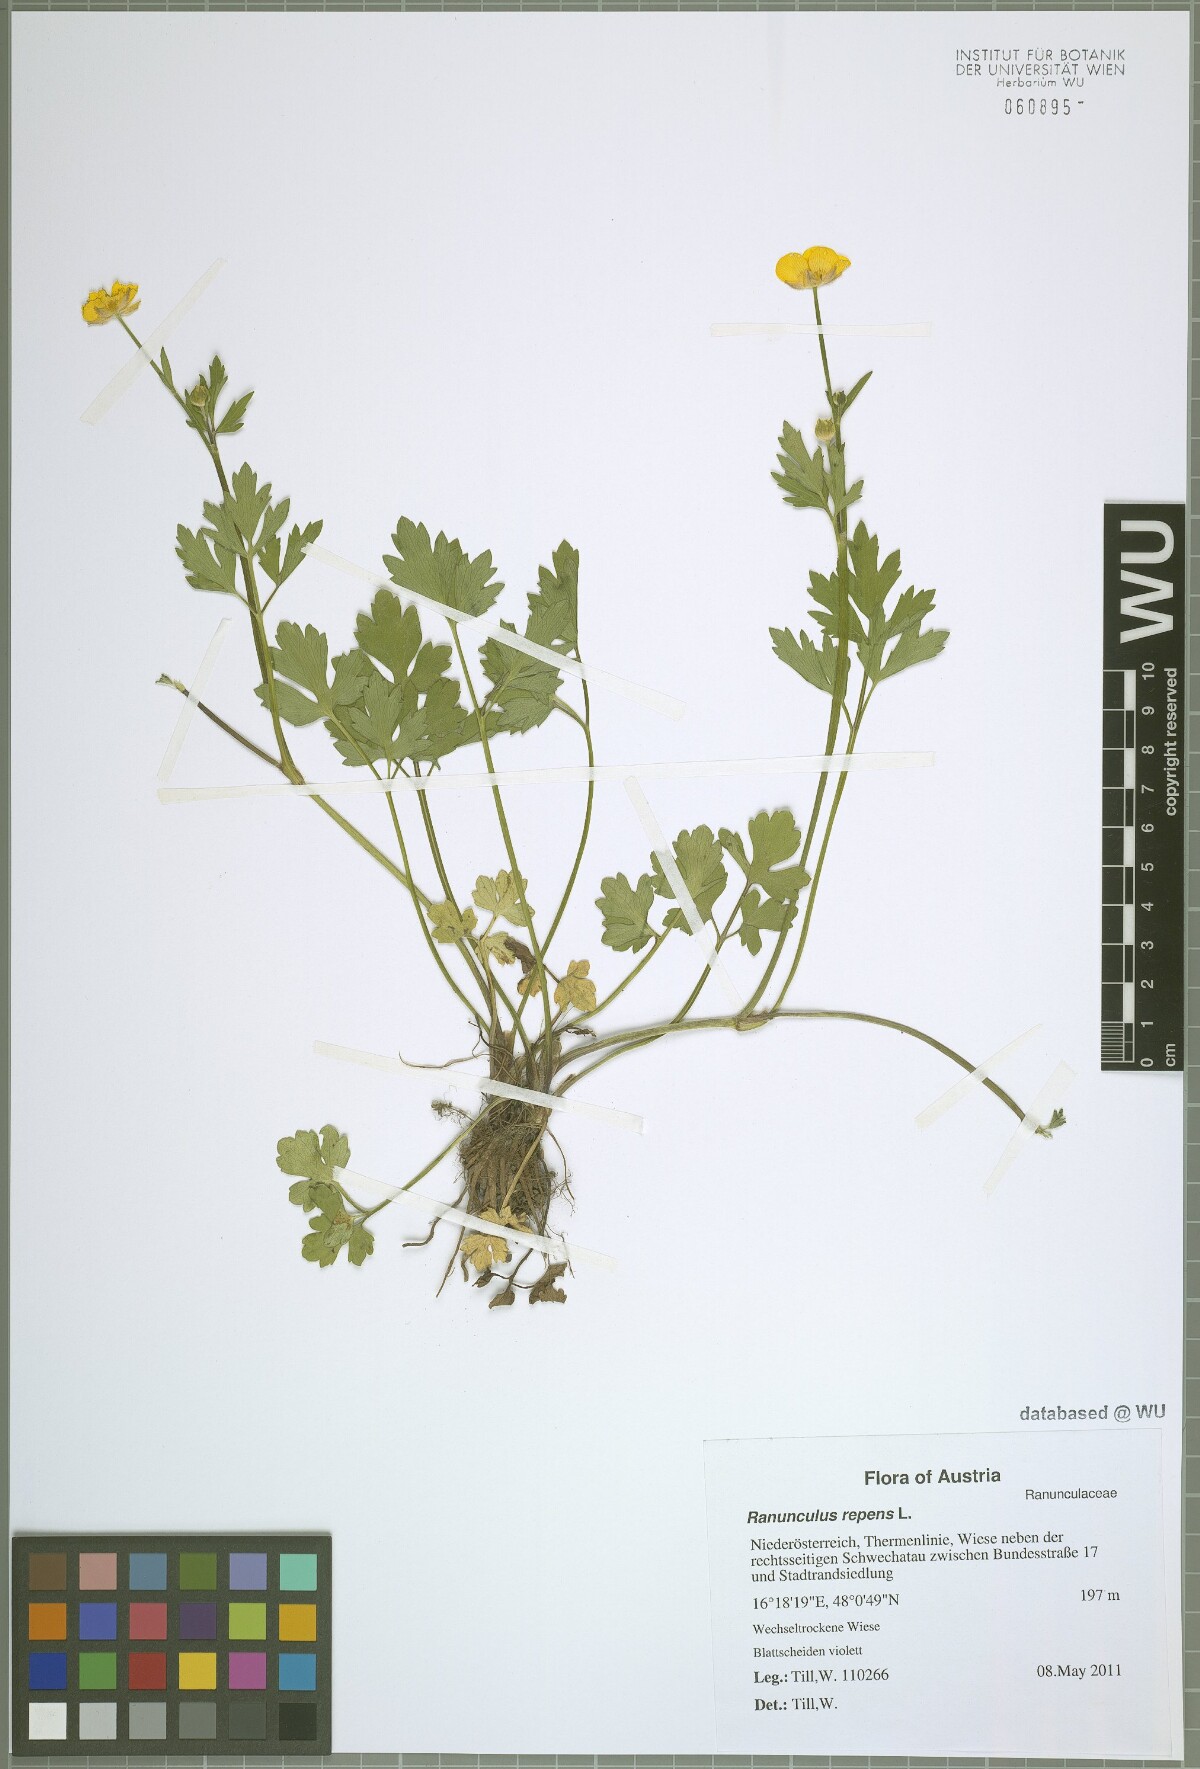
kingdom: Plantae
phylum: Tracheophyta
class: Magnoliopsida
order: Ranunculales
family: Ranunculaceae
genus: Ranunculus
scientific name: Ranunculus repens
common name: Creeping buttercup
